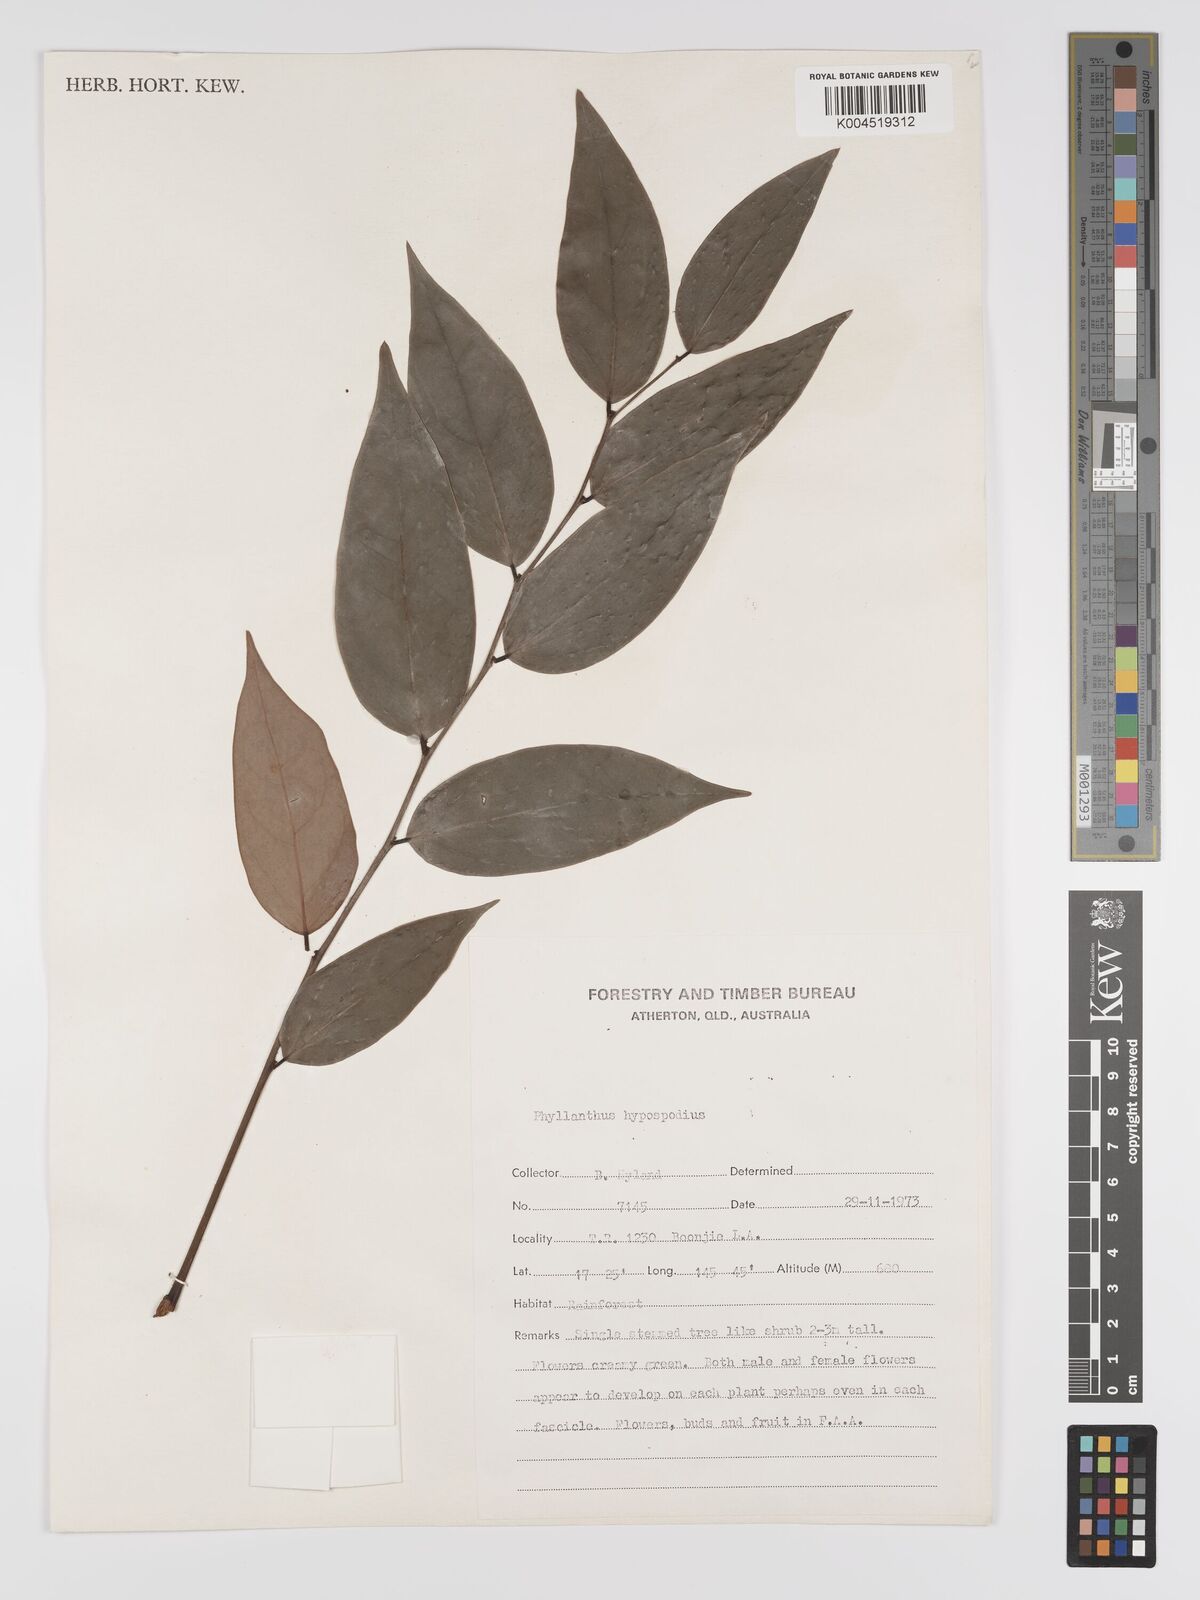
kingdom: Plantae
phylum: Tracheophyta
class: Magnoliopsida
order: Malpighiales
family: Phyllanthaceae
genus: Phyllanthus
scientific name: Phyllanthus hypospodius
